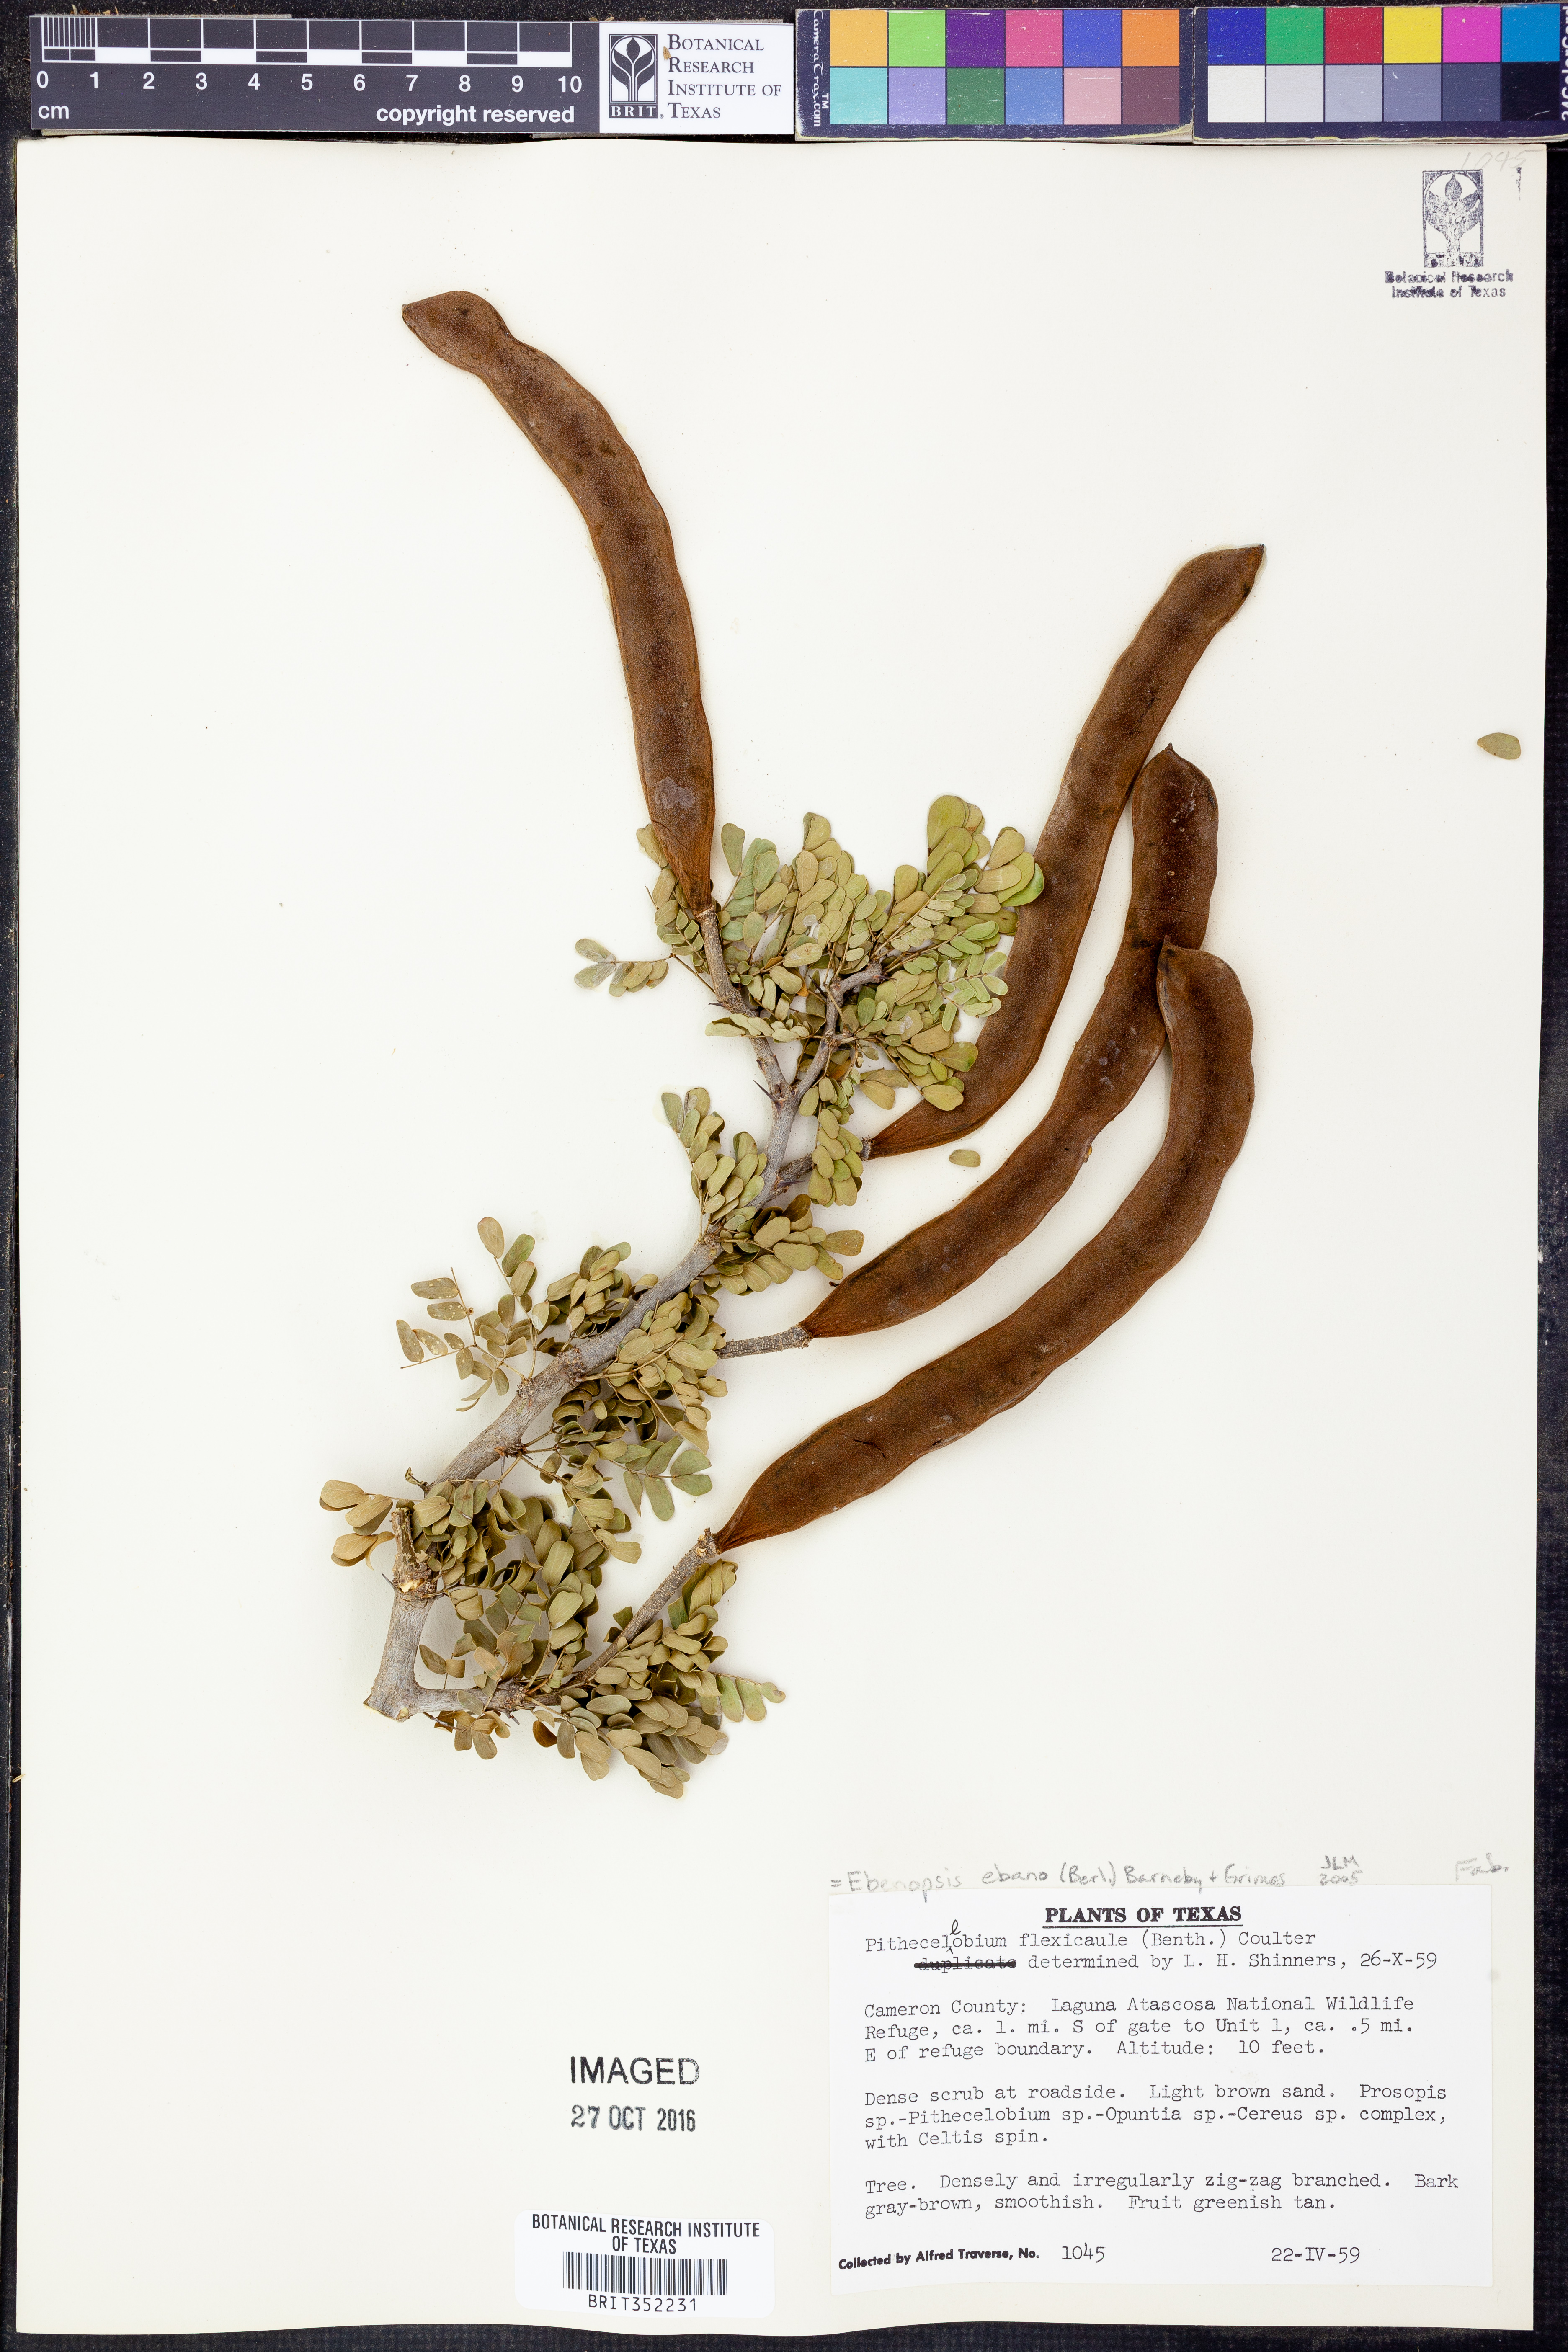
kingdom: Plantae
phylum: Tracheophyta
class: Magnoliopsida
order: Fabales
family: Fabaceae
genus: Ebenopsis
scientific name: Ebenopsis ebano
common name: Ebony blackbead
